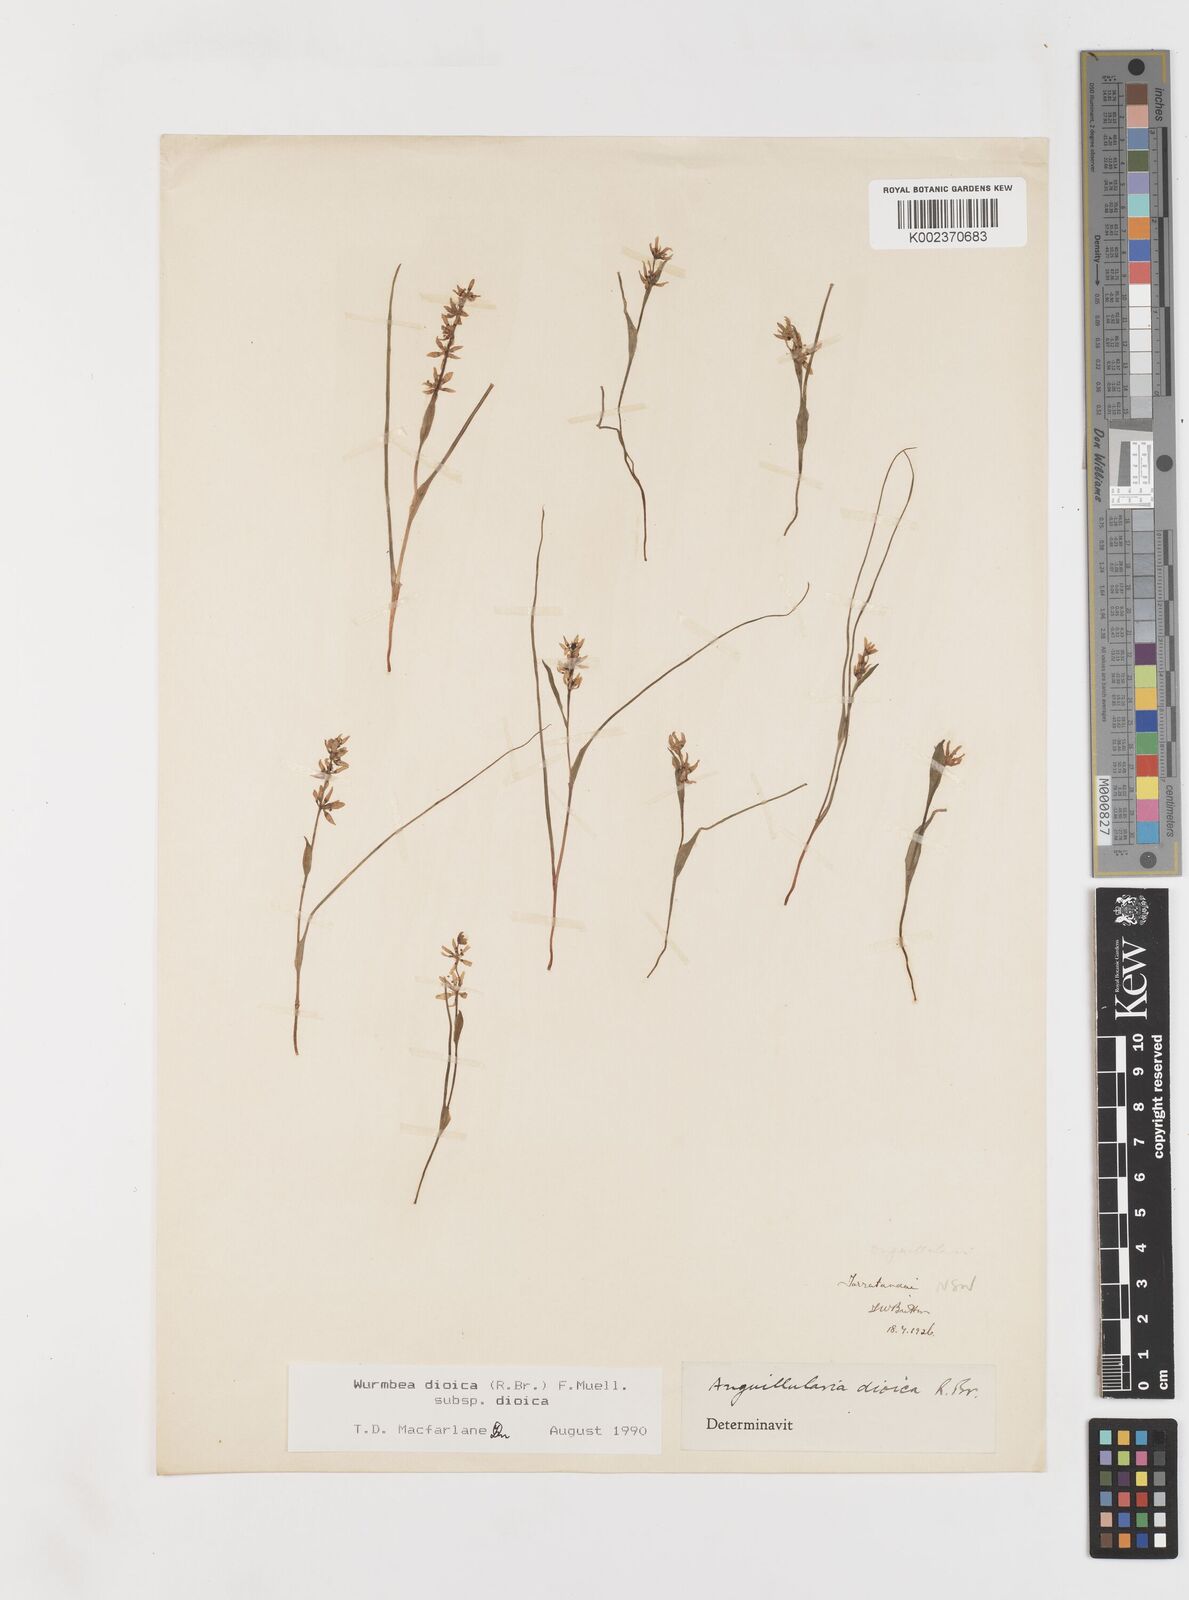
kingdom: Plantae
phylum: Tracheophyta
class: Liliopsida
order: Liliales
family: Colchicaceae
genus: Wurmbea
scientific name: Wurmbea dioica
